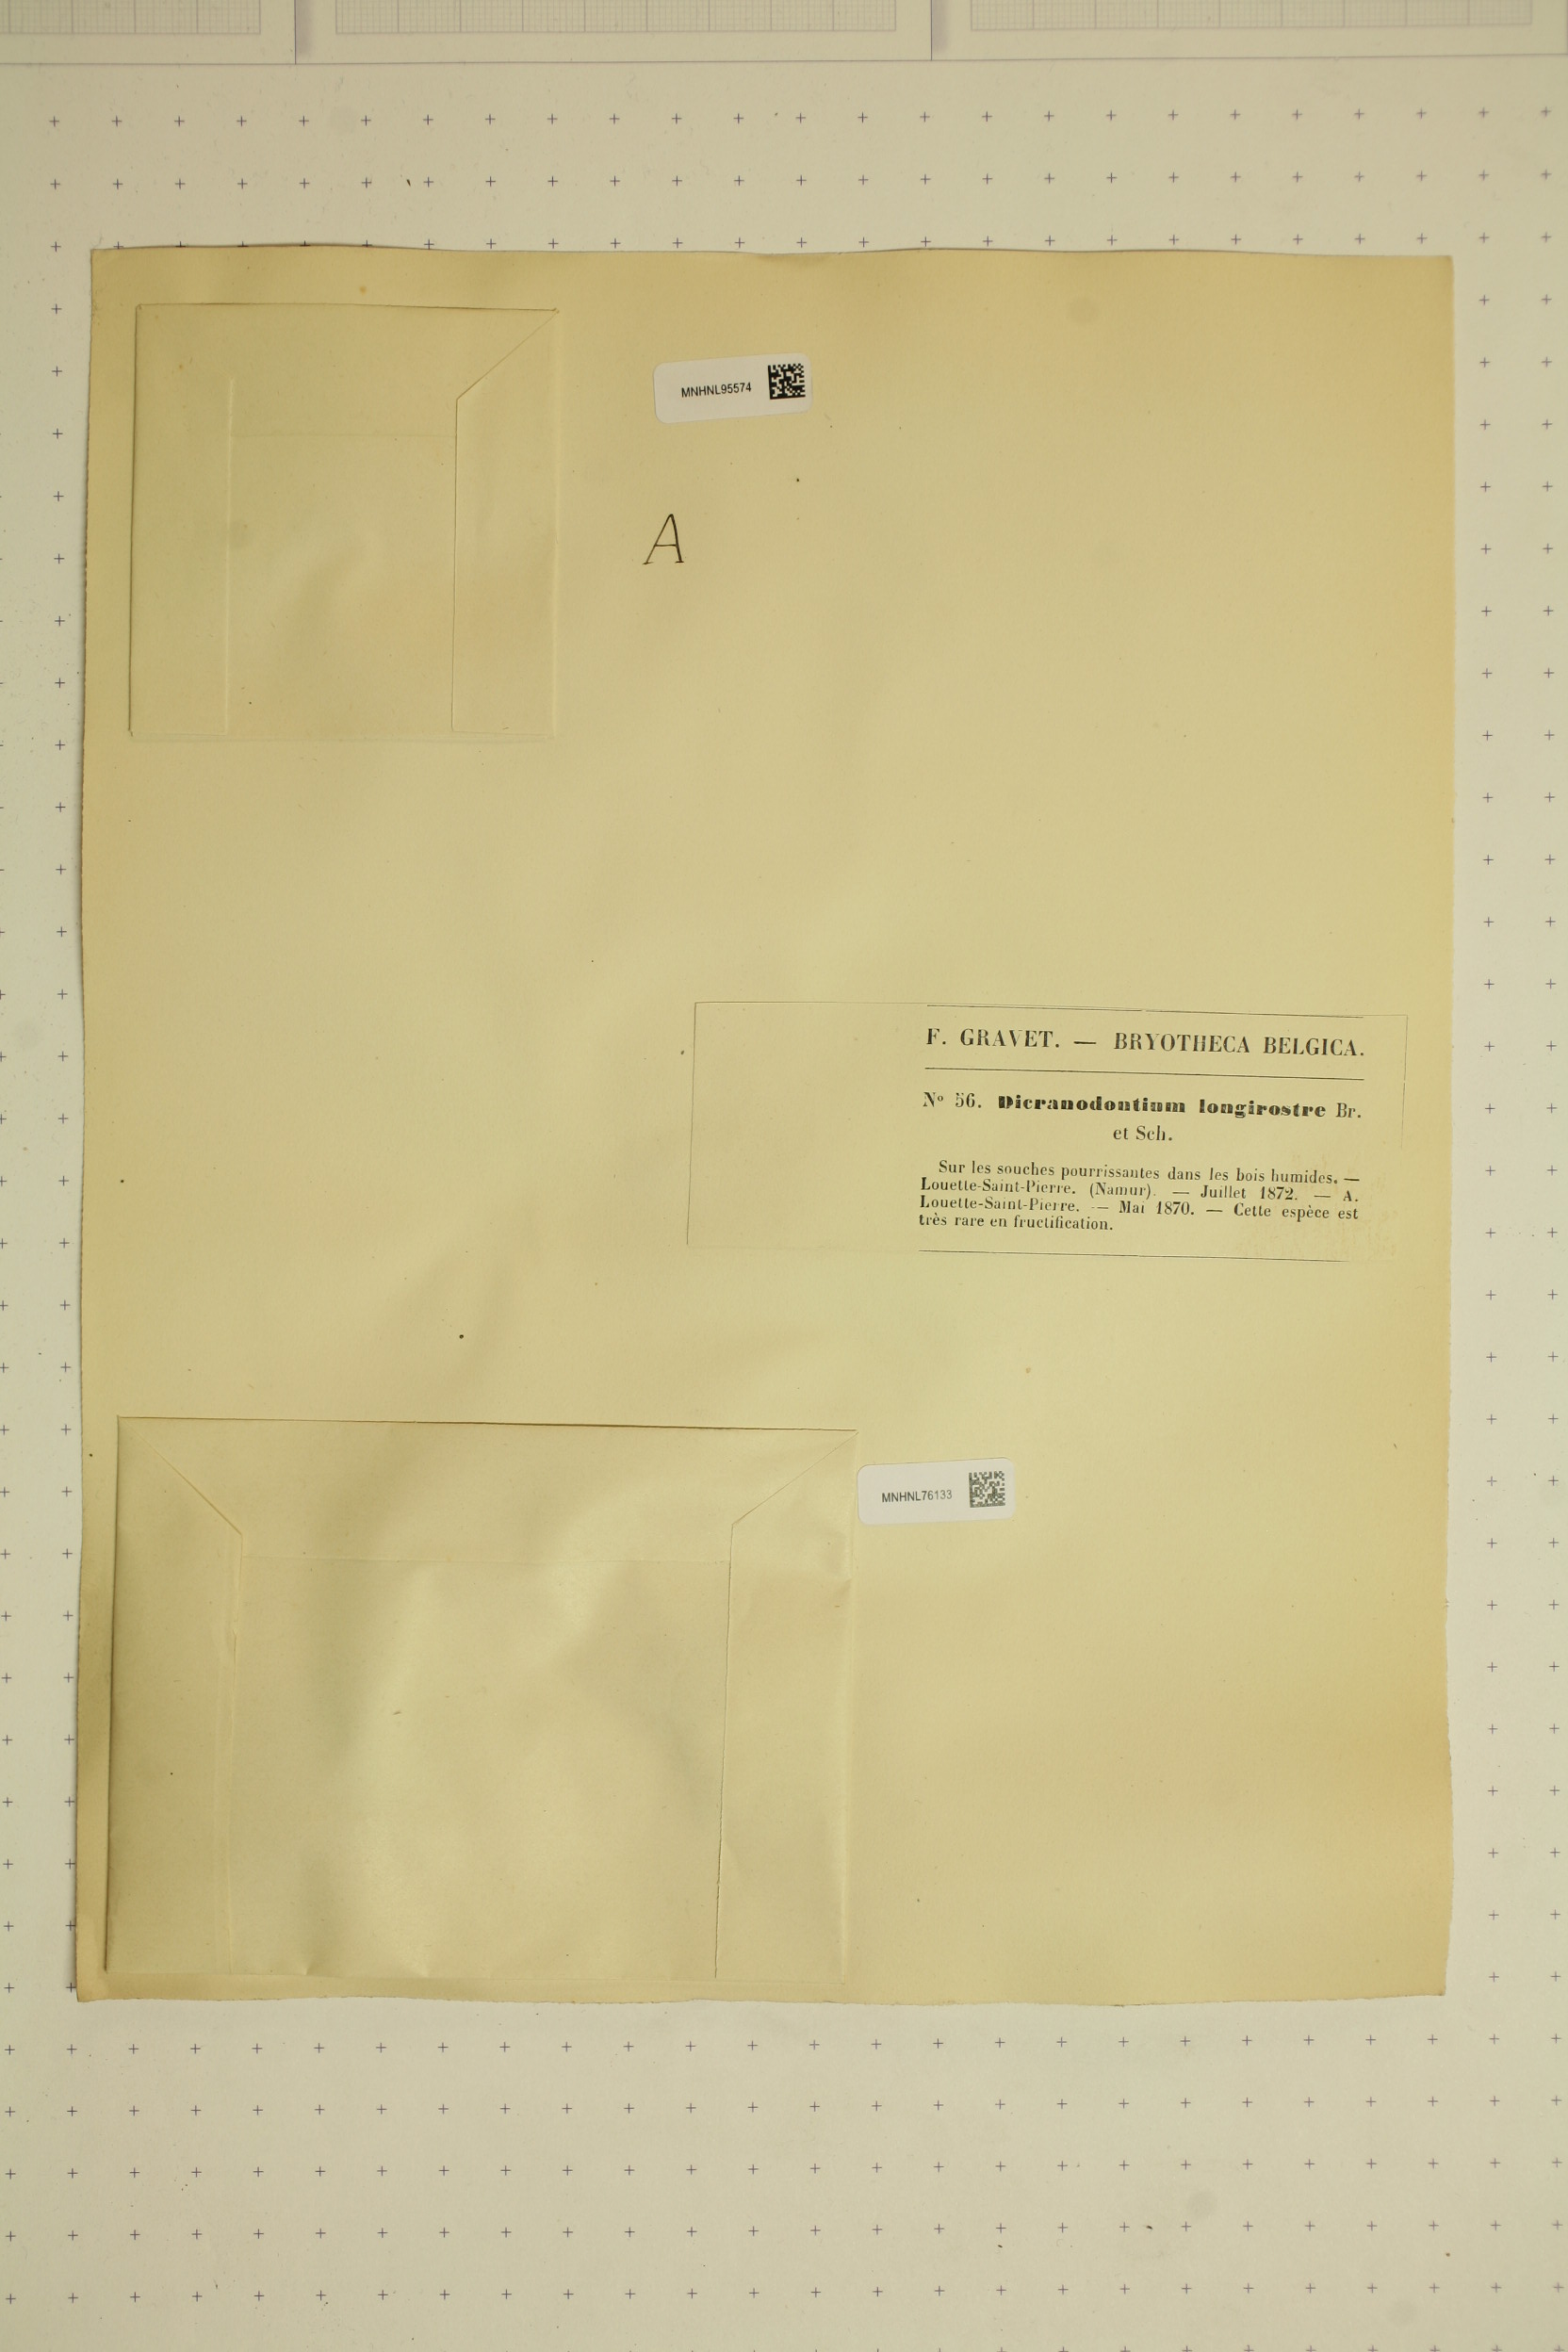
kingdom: Plantae
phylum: Bryophyta
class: Bryopsida
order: Dicranales
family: Leucobryaceae
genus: Dicranodontium
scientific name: Dicranodontium denudatum
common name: Beaked bow moss
